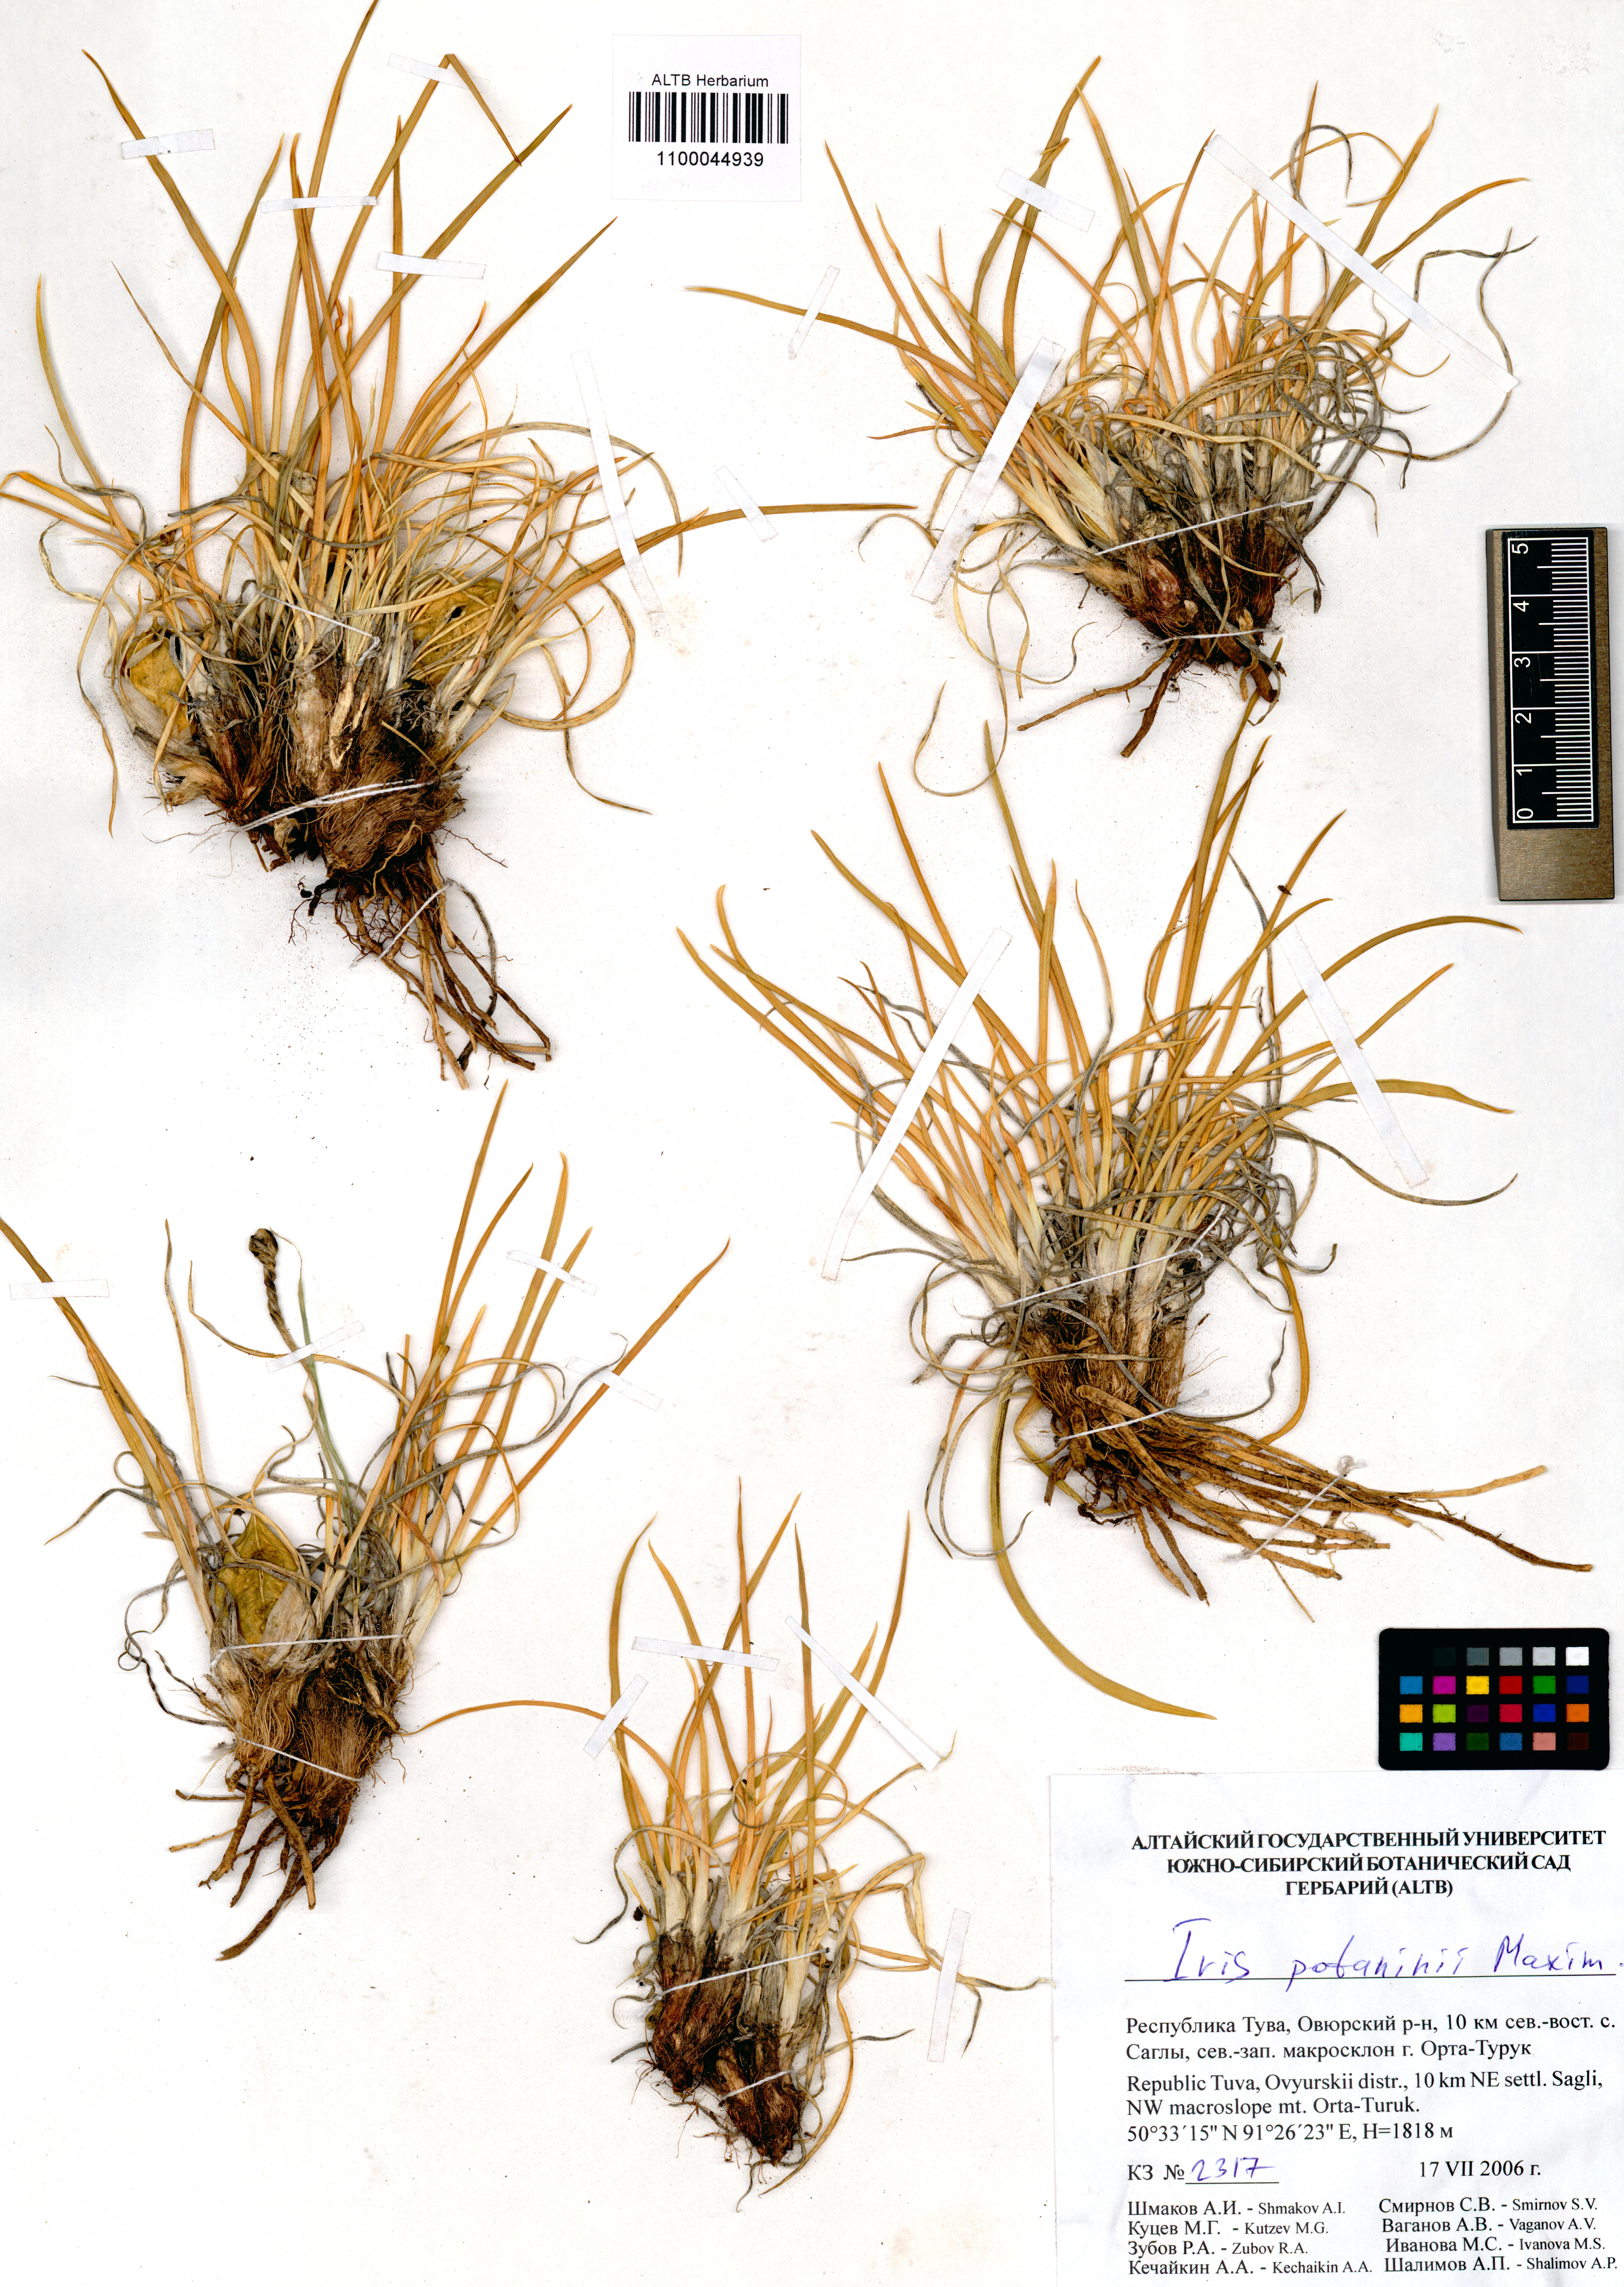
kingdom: Plantae
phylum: Tracheophyta
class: Liliopsida
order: Asparagales
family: Iridaceae
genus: Iris
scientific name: Iris potaninii
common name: Curl-sheath iris
